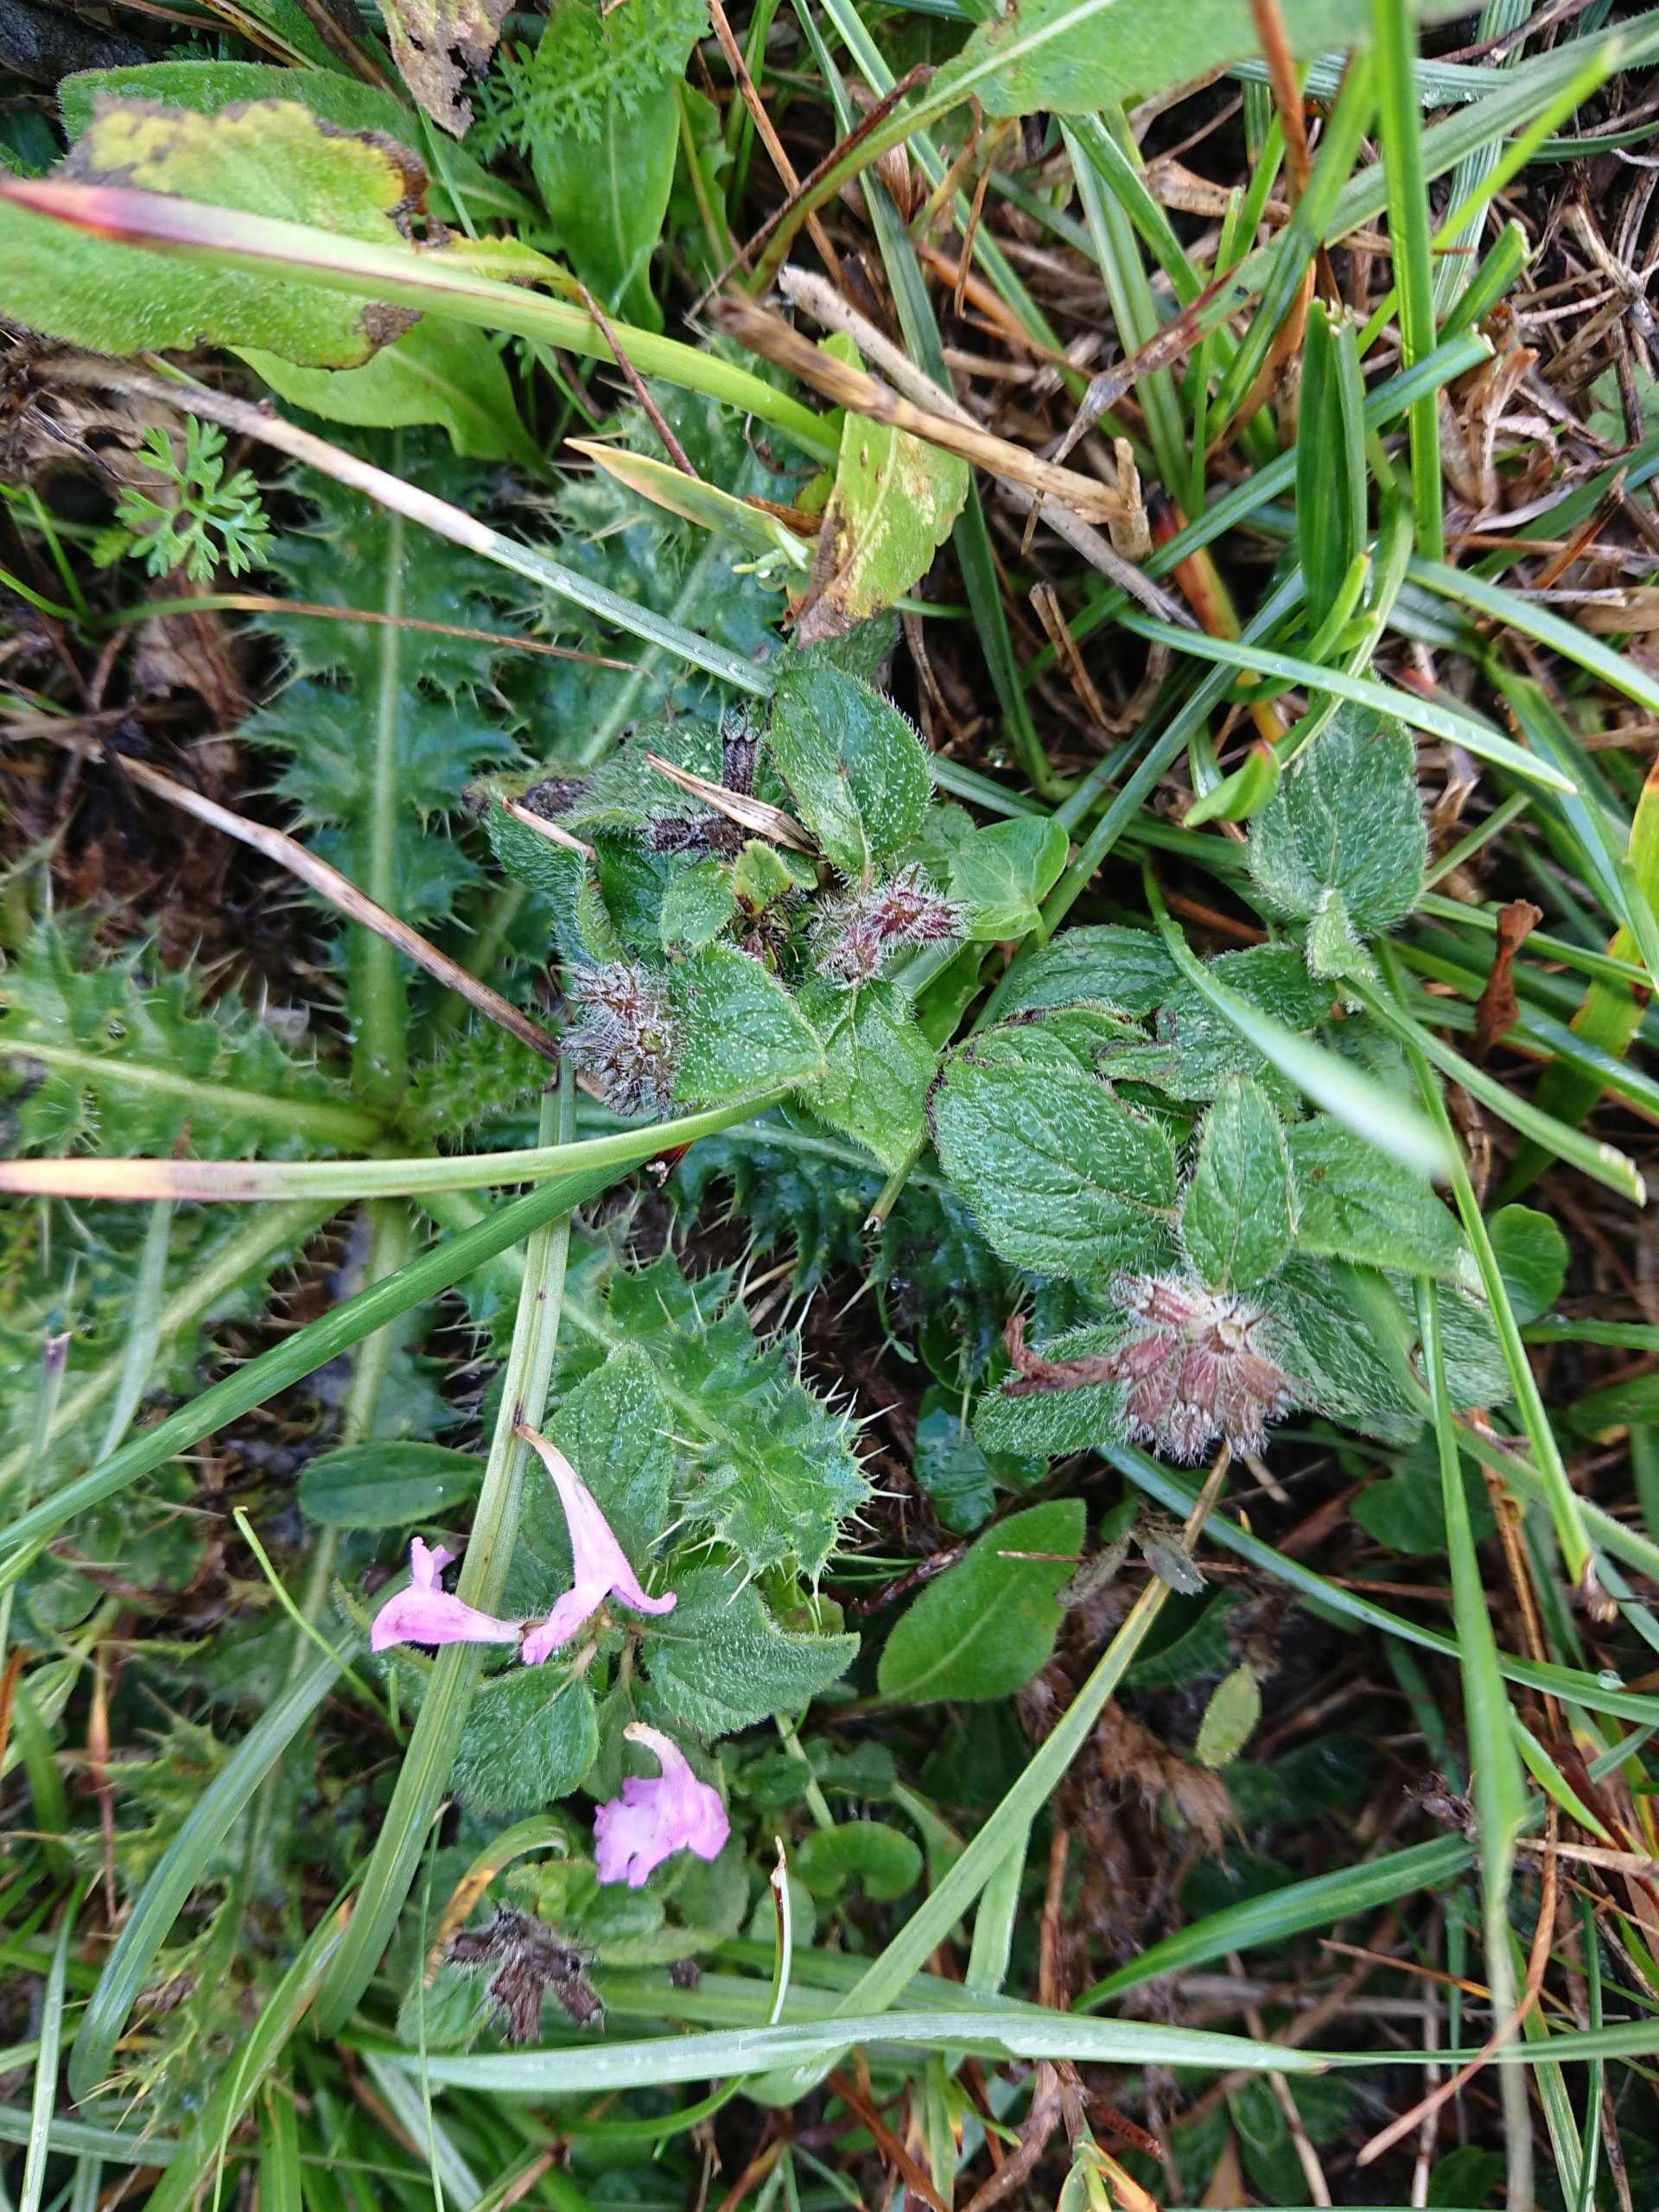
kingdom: Plantae
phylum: Tracheophyta
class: Magnoliopsida
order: Lamiales
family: Lamiaceae
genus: Clinopodium
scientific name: Clinopodium vulgare
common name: Kransbørste
